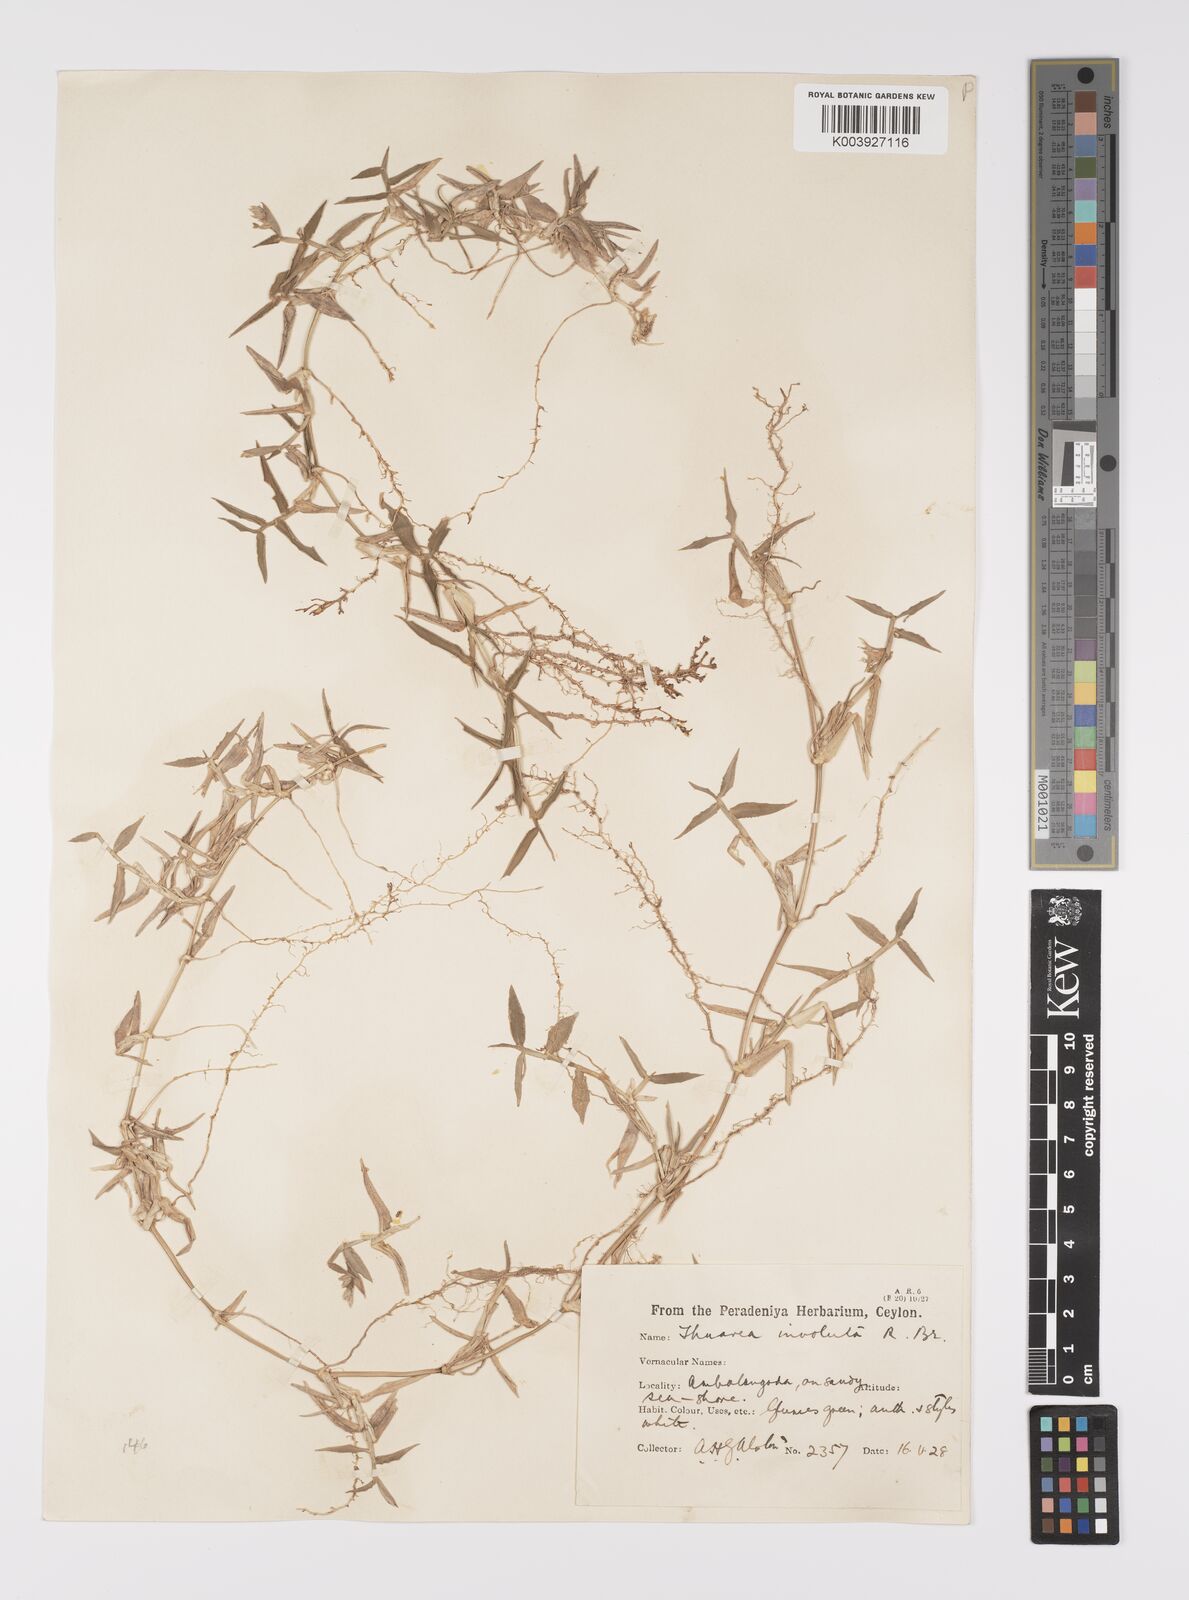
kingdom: Plantae
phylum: Tracheophyta
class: Liliopsida
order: Poales
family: Poaceae
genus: Thuarea
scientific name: Thuarea involuta
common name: Tropical beach grass
